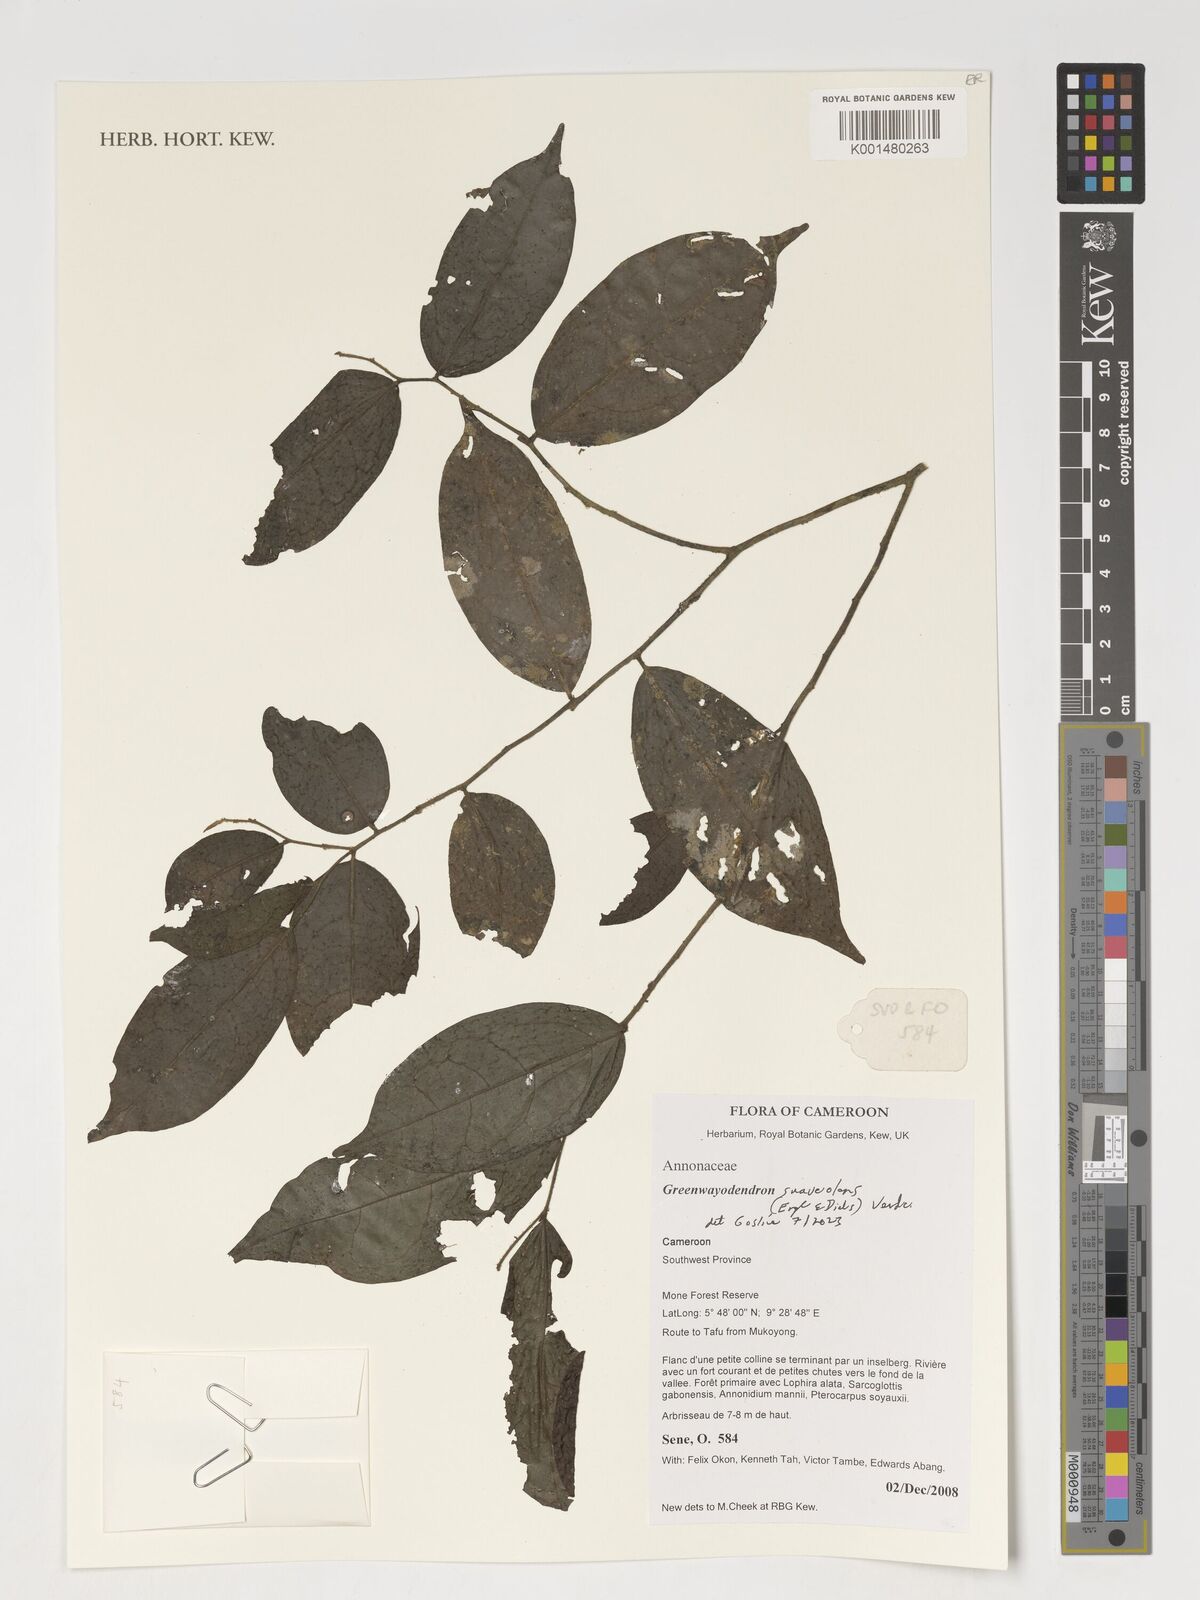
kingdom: Plantae
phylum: Tracheophyta
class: Magnoliopsida
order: Magnoliales
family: Annonaceae
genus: Greenwayodendron
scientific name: Greenwayodendron suaveolens
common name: Molinda
